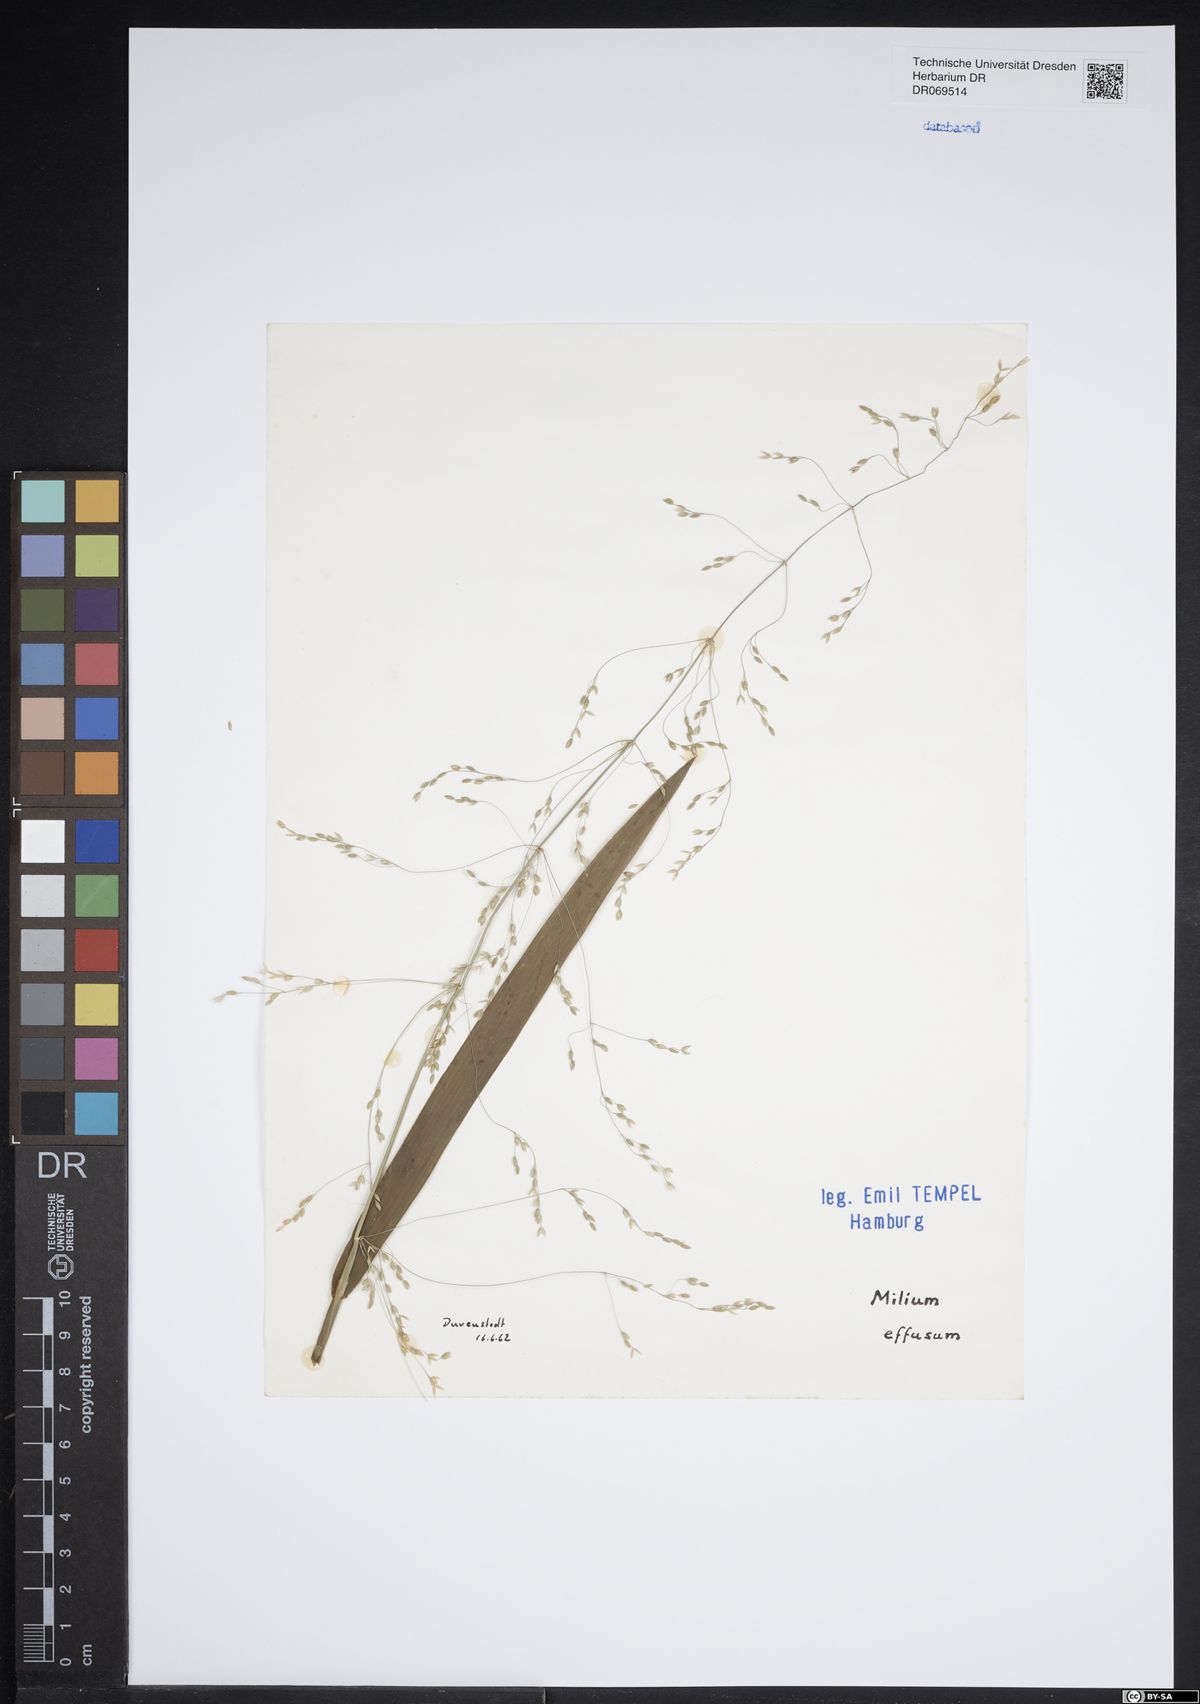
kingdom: Plantae
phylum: Tracheophyta
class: Liliopsida
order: Poales
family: Poaceae
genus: Milium
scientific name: Milium effusum
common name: Wood millet
